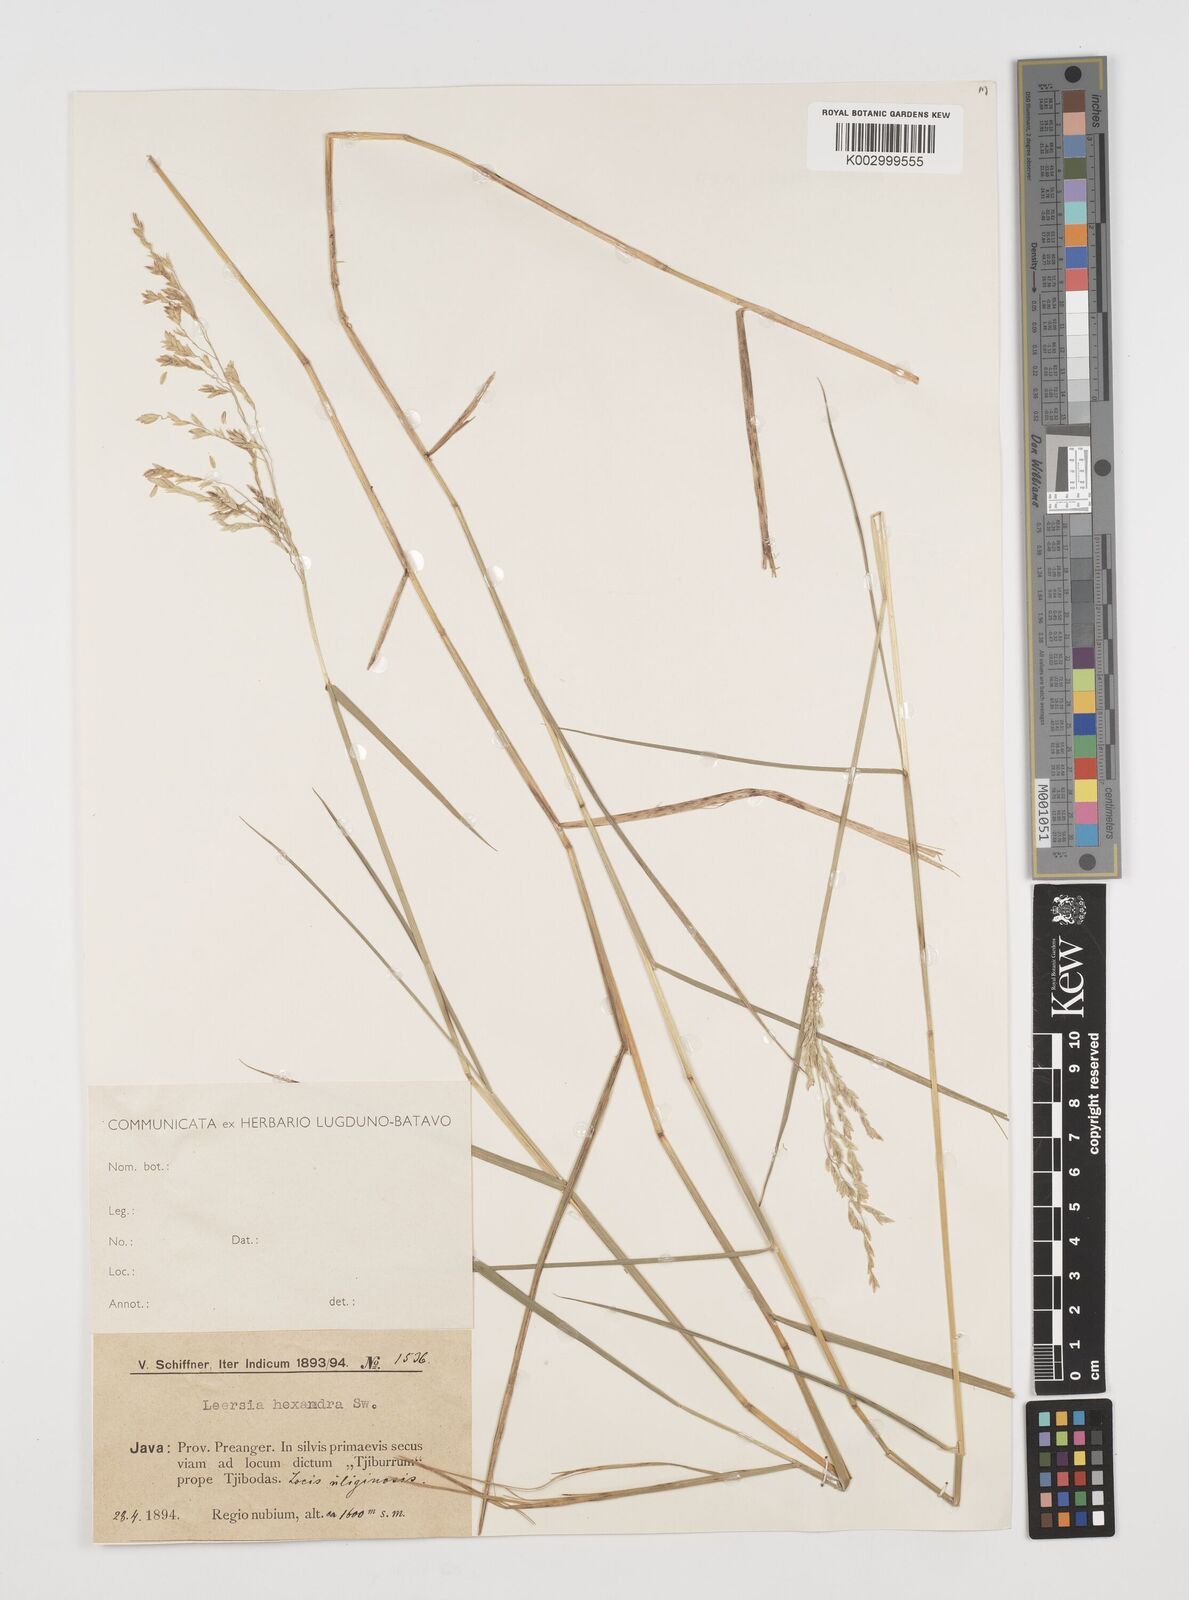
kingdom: Plantae
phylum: Tracheophyta
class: Liliopsida
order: Poales
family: Poaceae
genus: Leersia
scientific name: Leersia hexandra
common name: Southern cut grass
